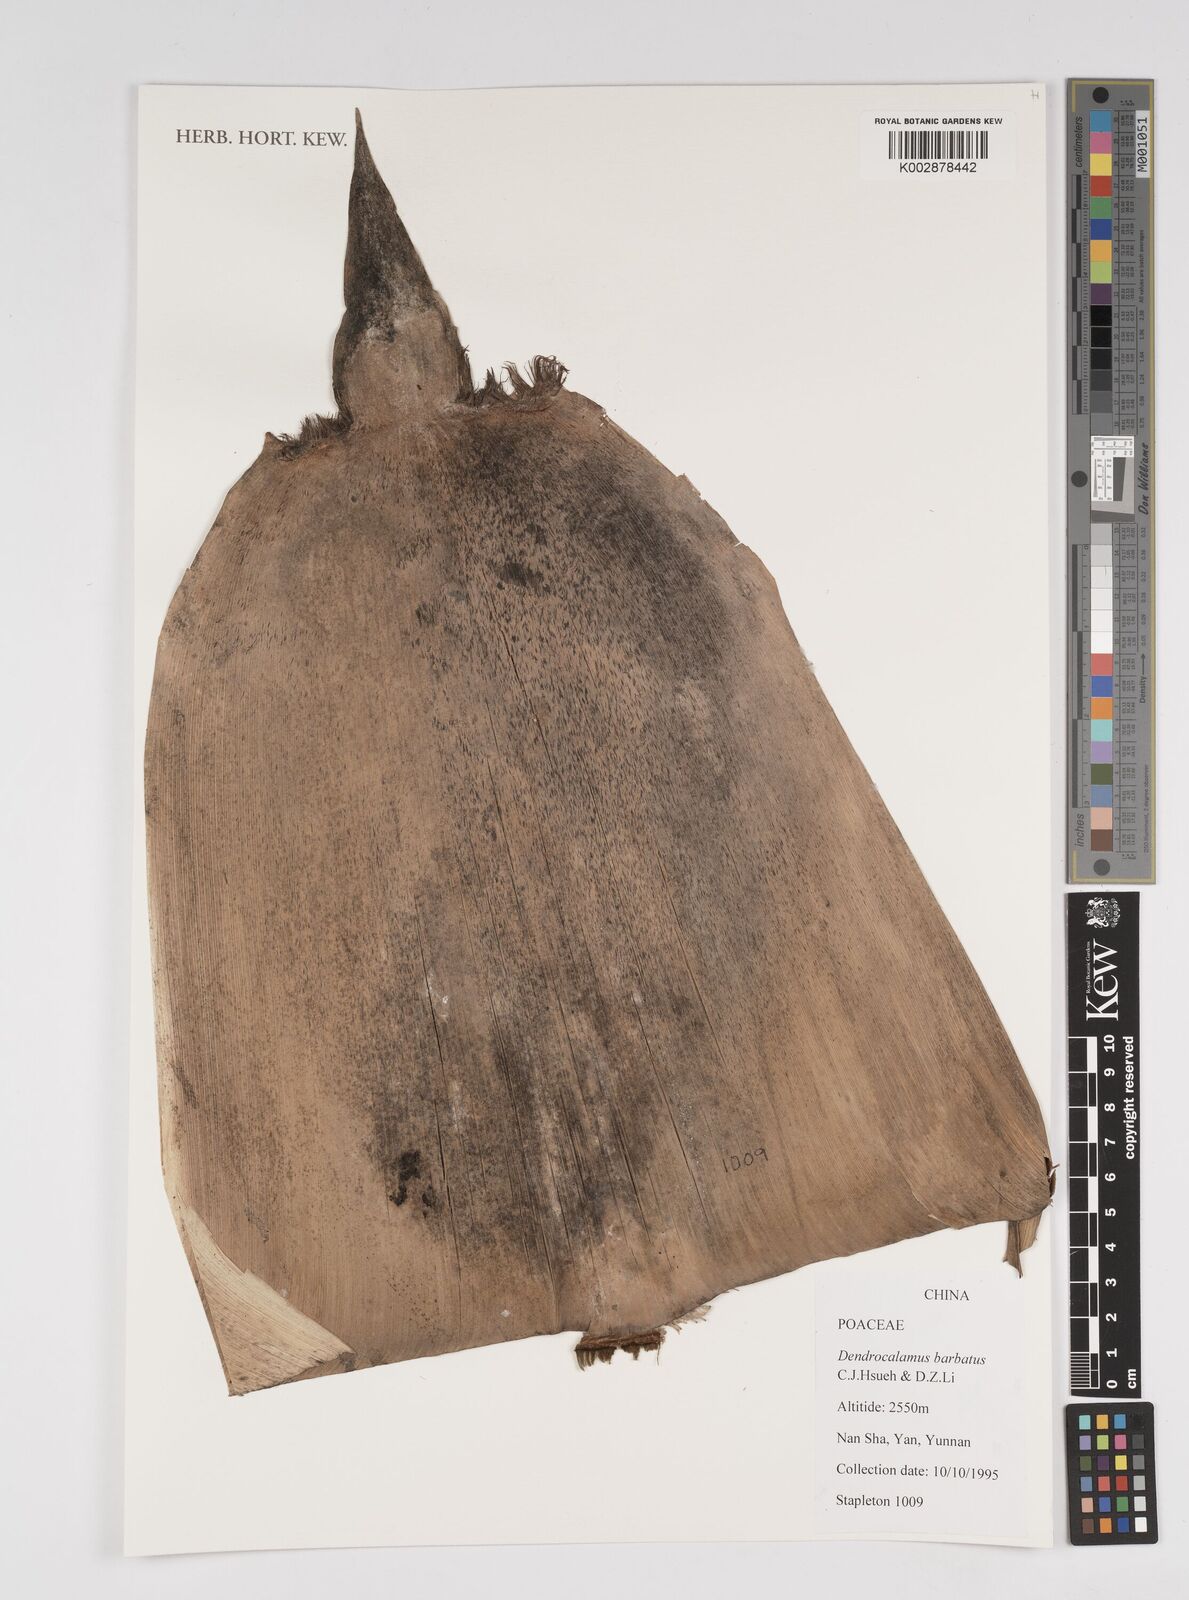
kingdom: Plantae
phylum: Tracheophyta
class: Liliopsida
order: Poales
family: Poaceae
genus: Dendrocalamus
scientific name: Dendrocalamus barbatus
